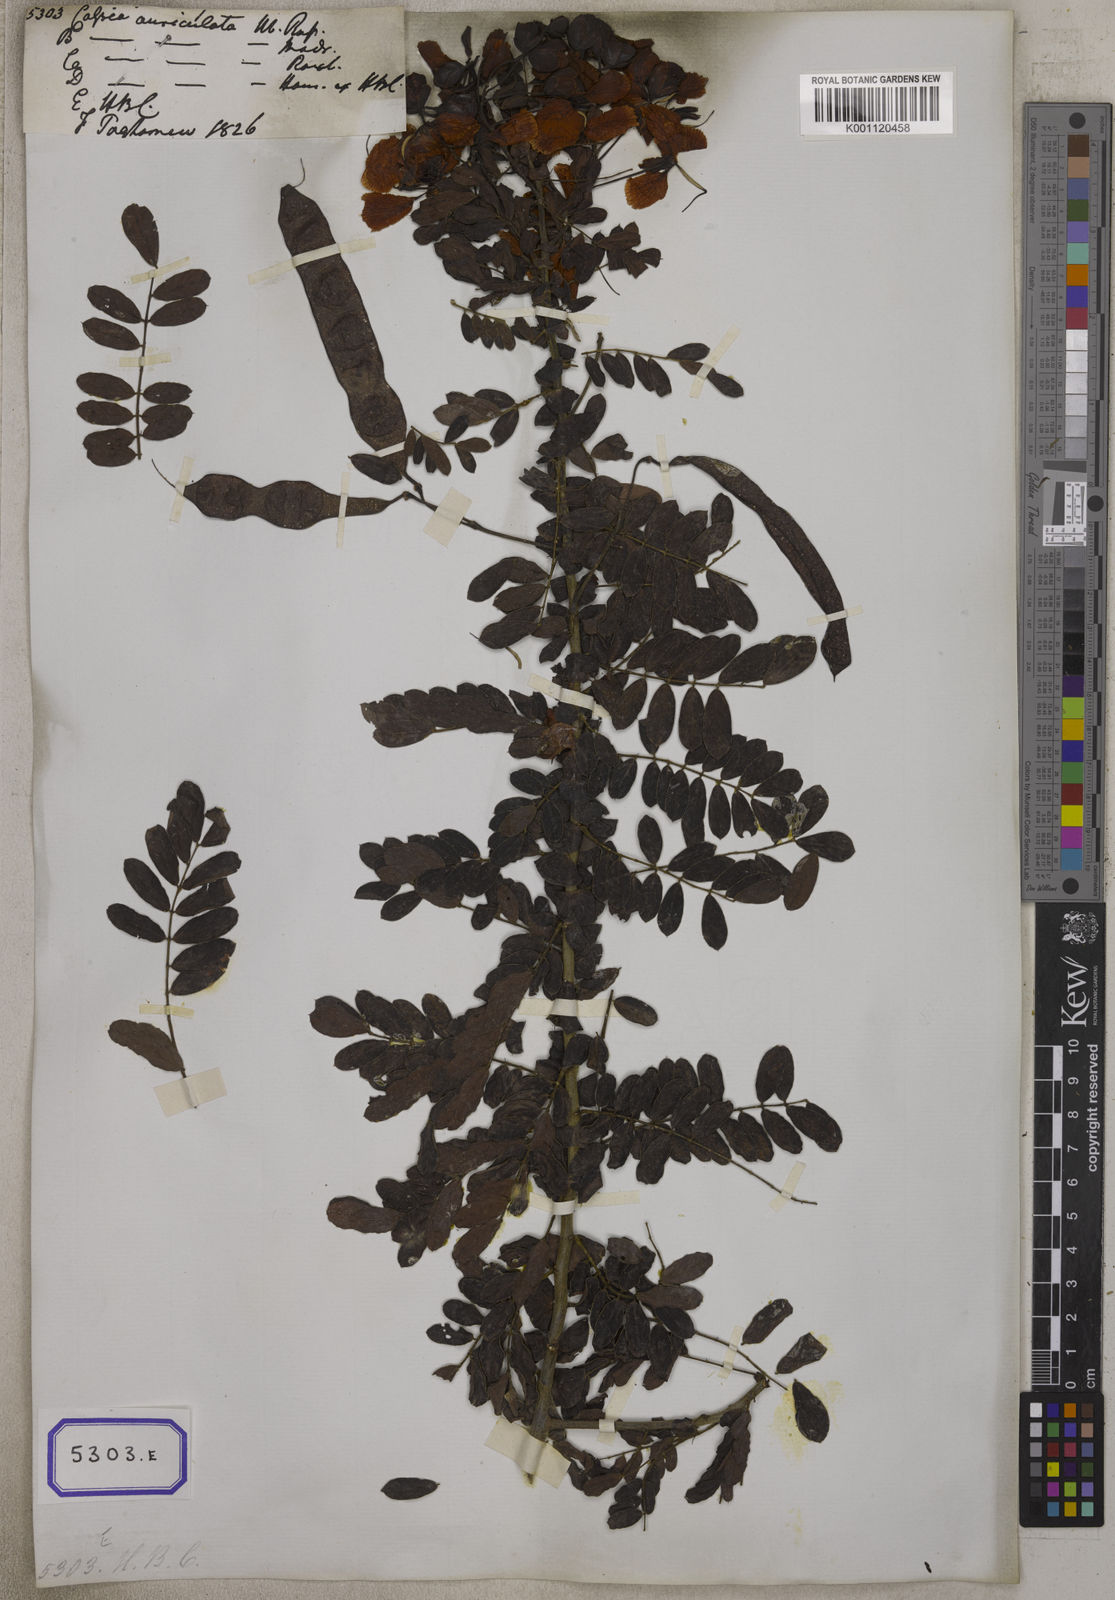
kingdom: Plantae
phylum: Tracheophyta
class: Magnoliopsida
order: Fabales
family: Fabaceae
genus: Senna
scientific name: Senna auriculata
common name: Tanner's cassia
